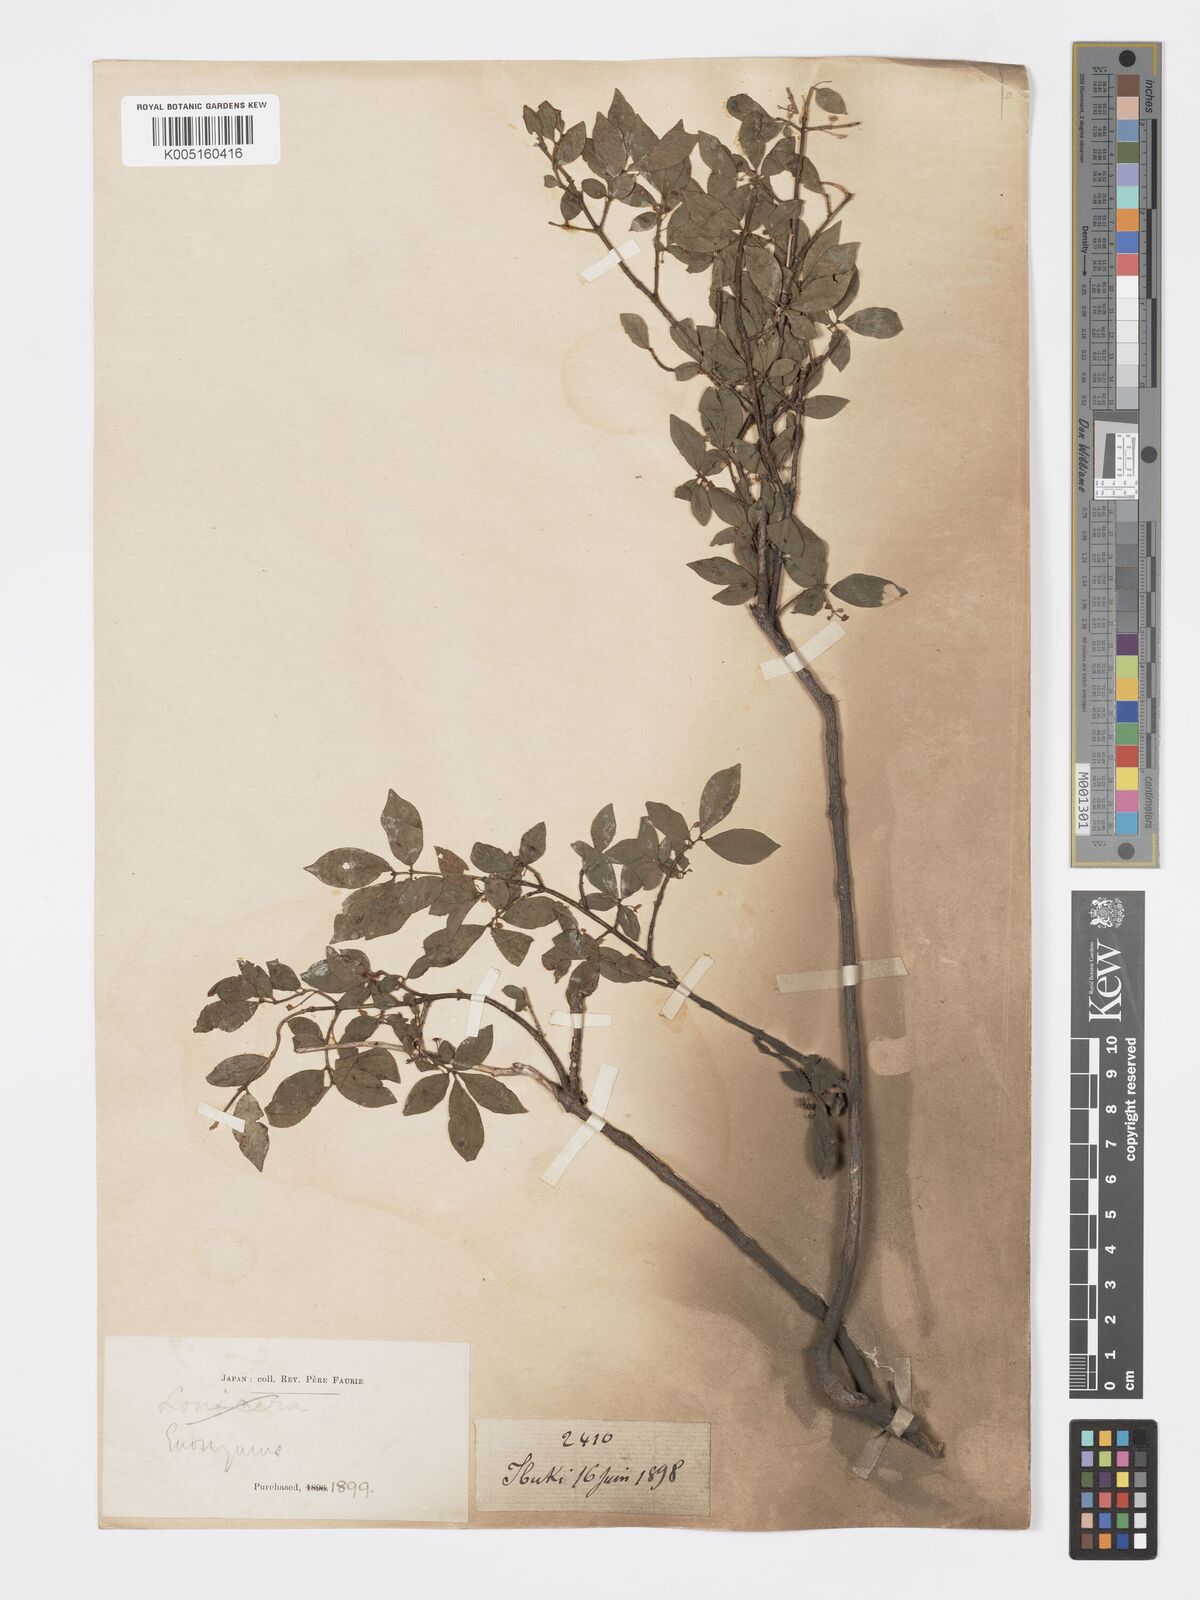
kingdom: Plantae
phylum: Tracheophyta
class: Magnoliopsida
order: Celastrales
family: Celastraceae
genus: Euonymus
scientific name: Euonymus
